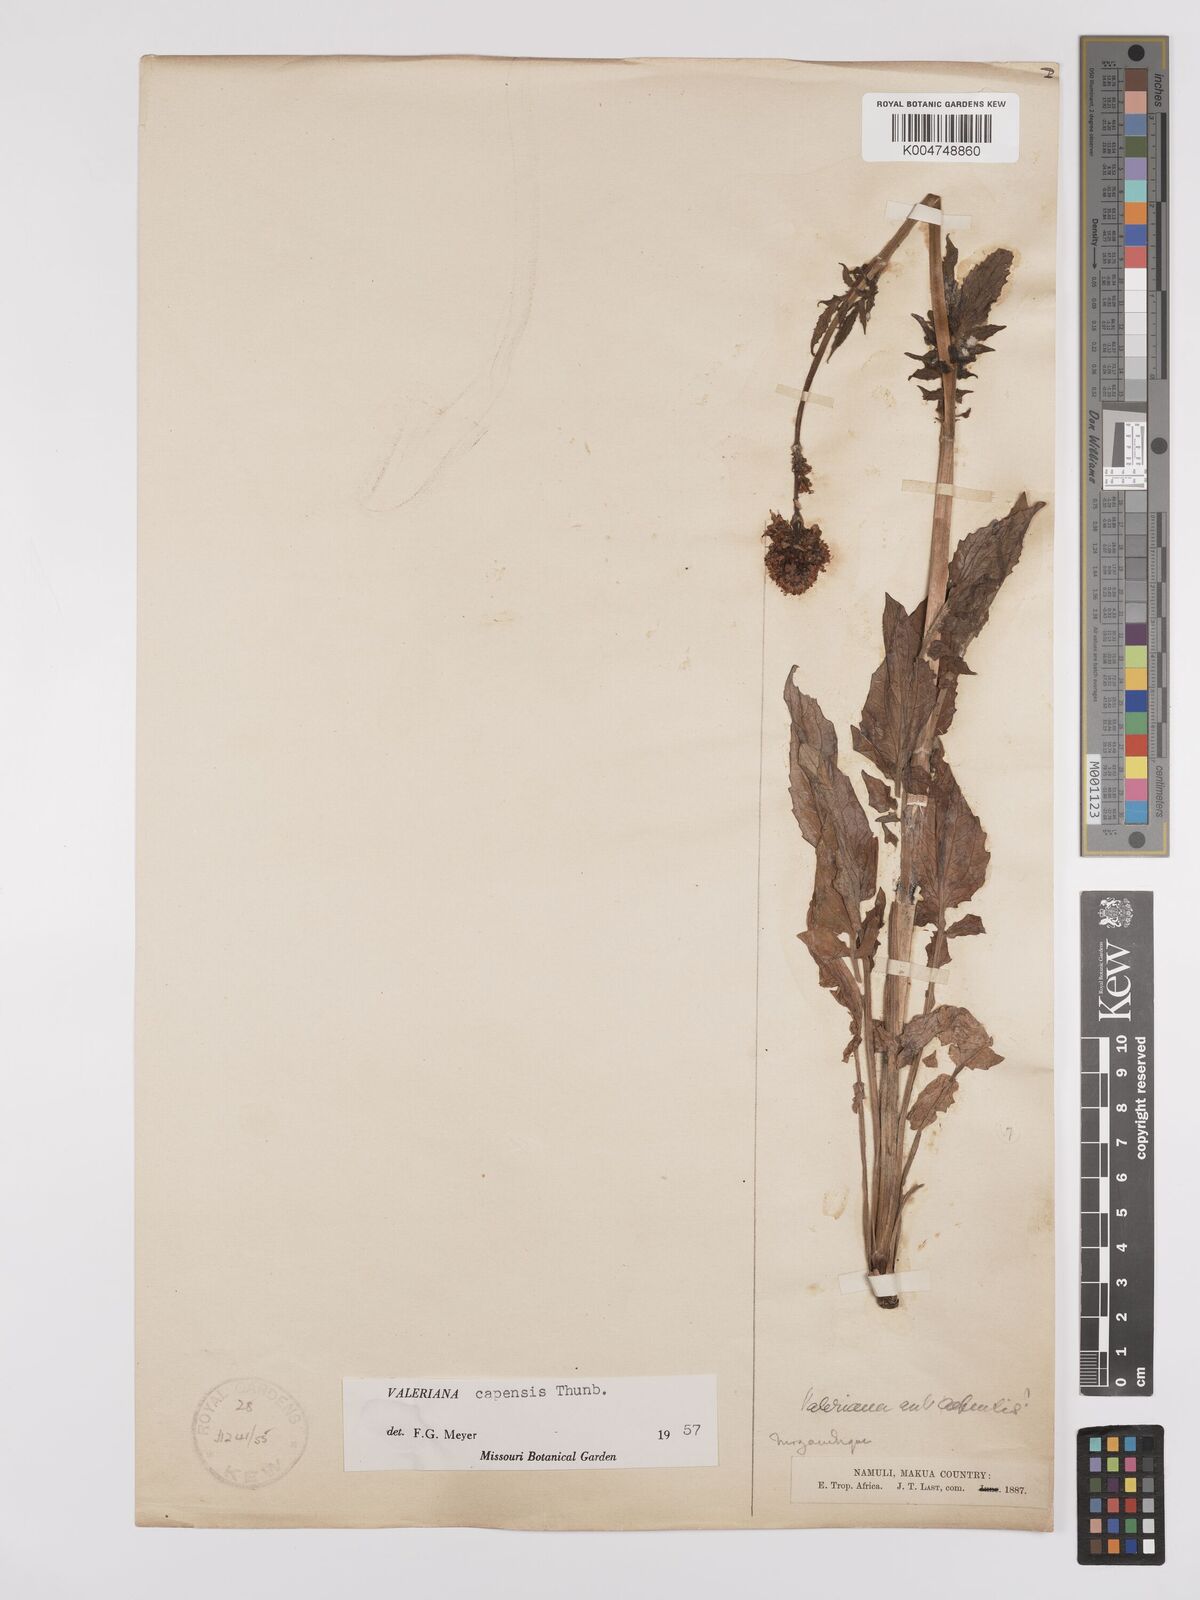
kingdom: Plantae
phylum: Tracheophyta
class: Magnoliopsida
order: Dipsacales
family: Caprifoliaceae
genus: Valeriana
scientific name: Valeriana capensis
